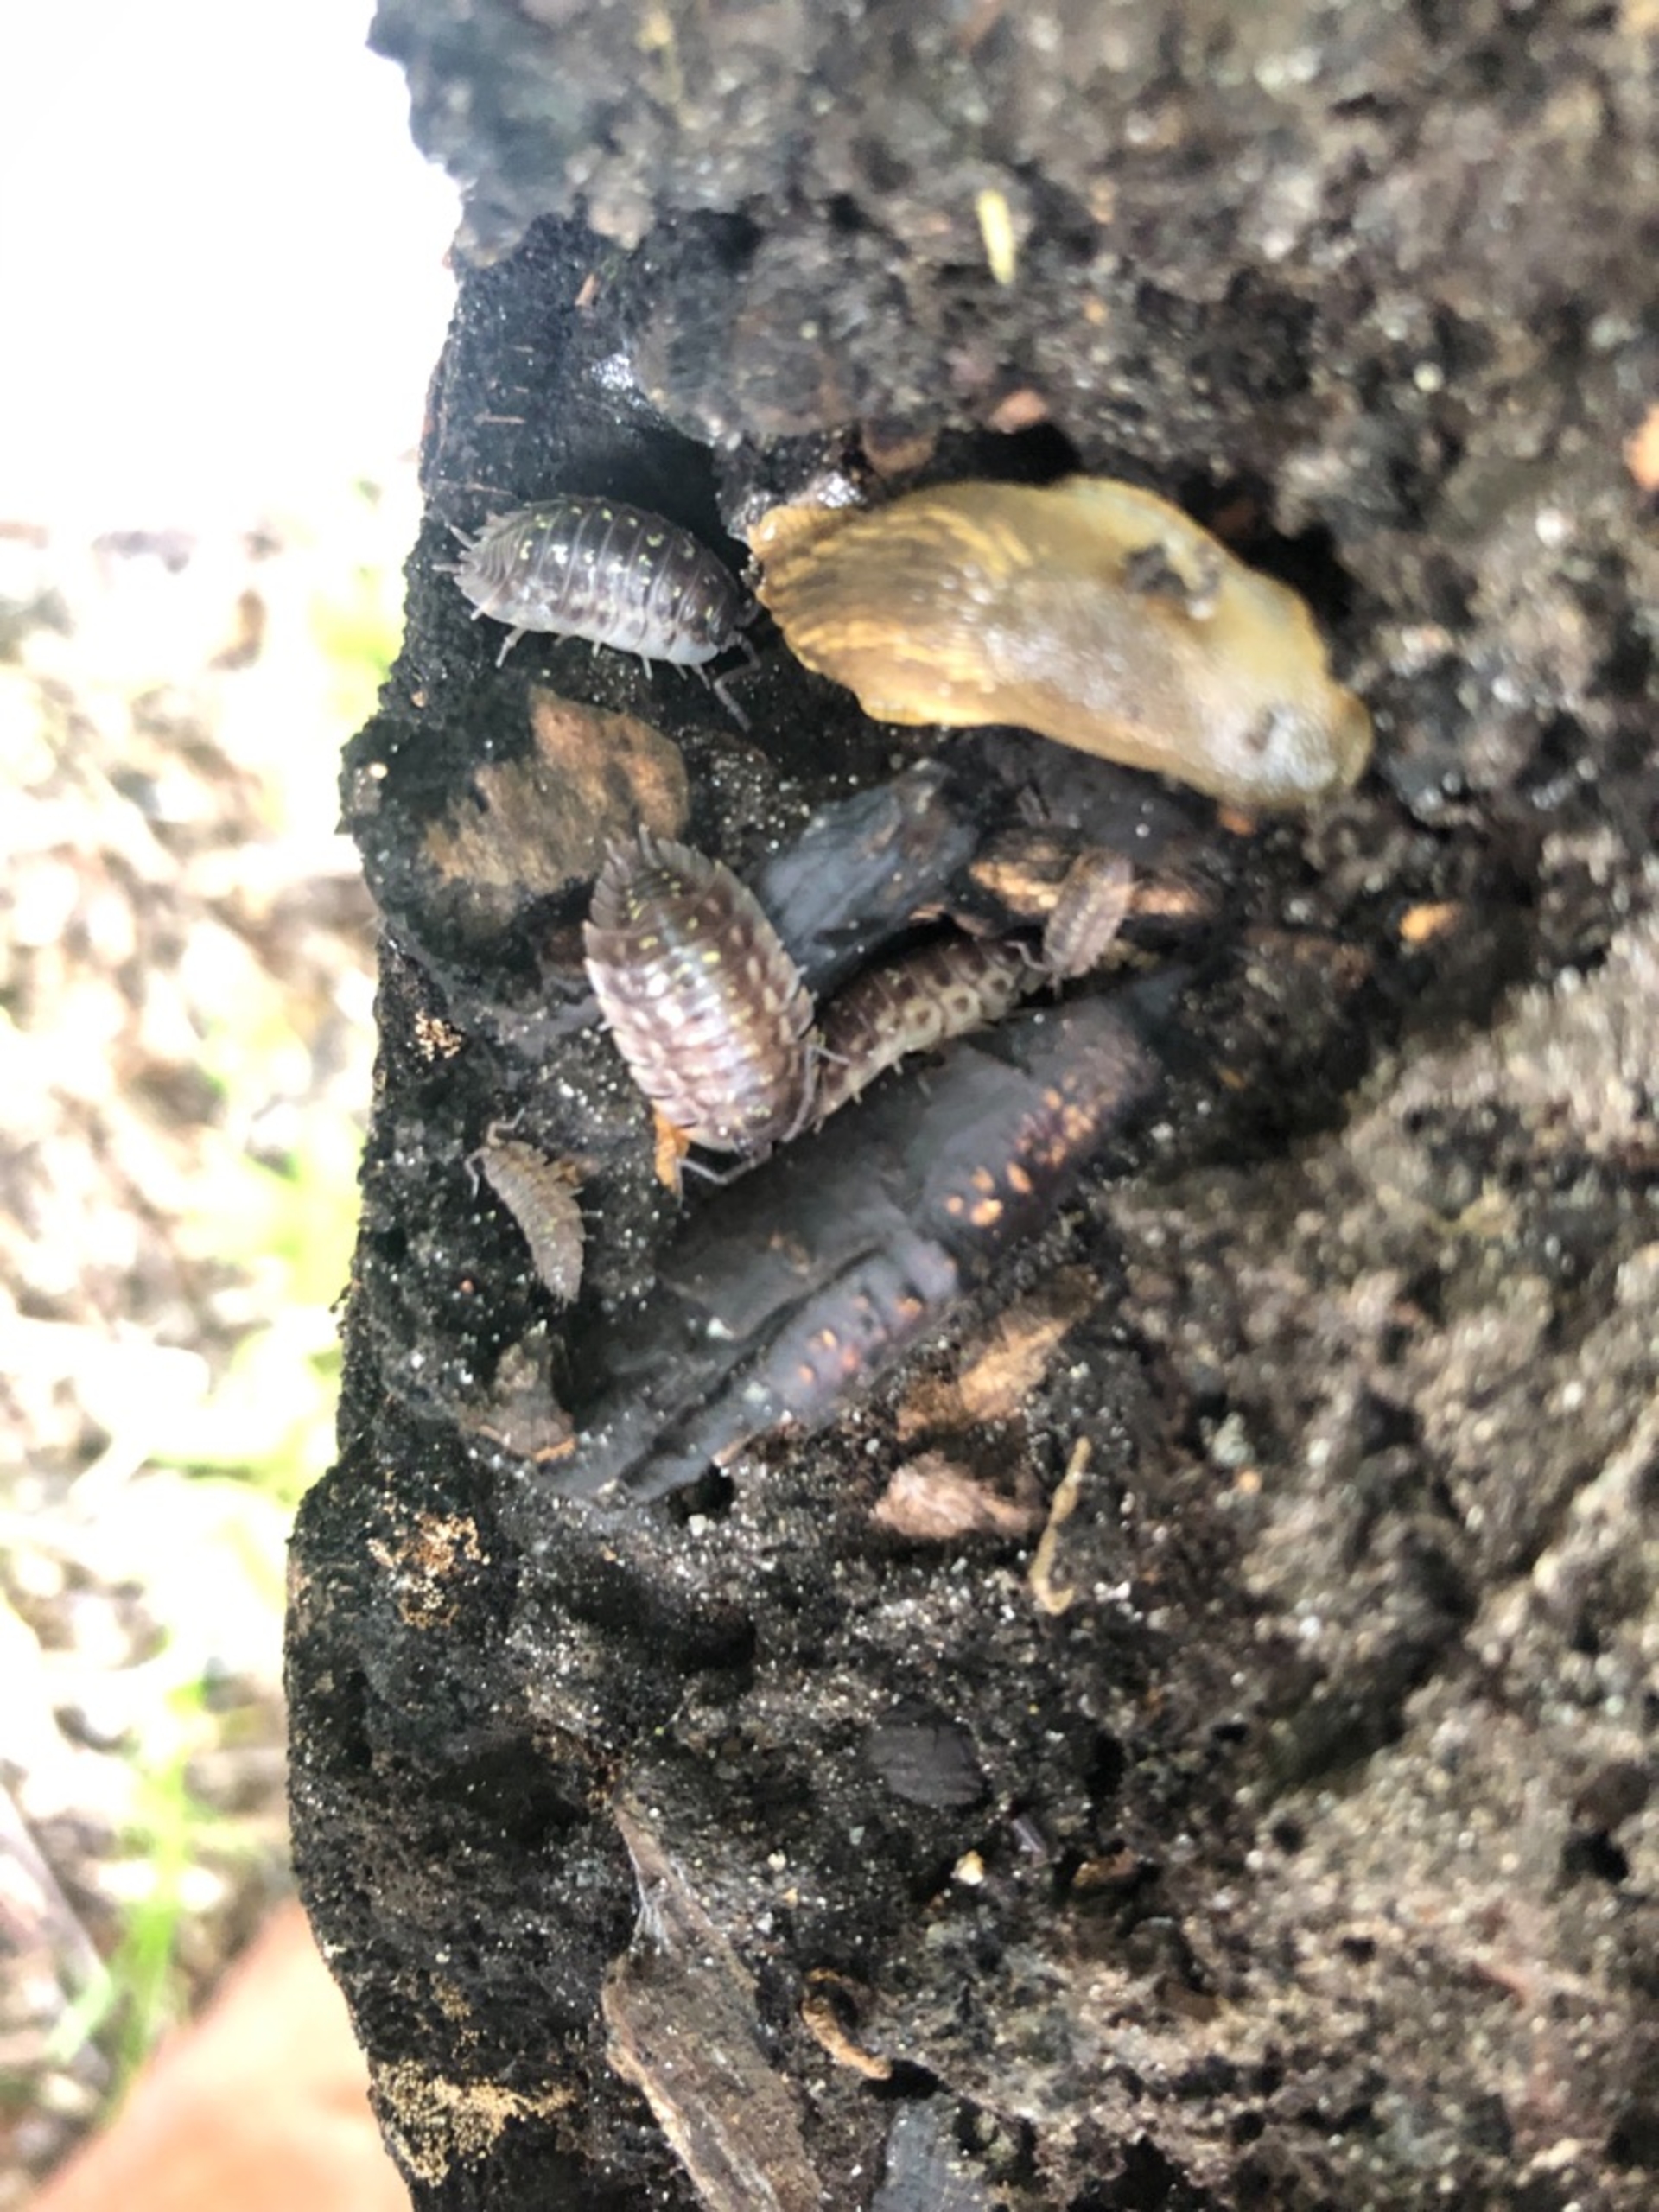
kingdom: Animalia
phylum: Arthropoda
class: Malacostraca
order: Isopoda
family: Oniscidae
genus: Oniscus
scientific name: Oniscus asellus
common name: Glat bænkebider
